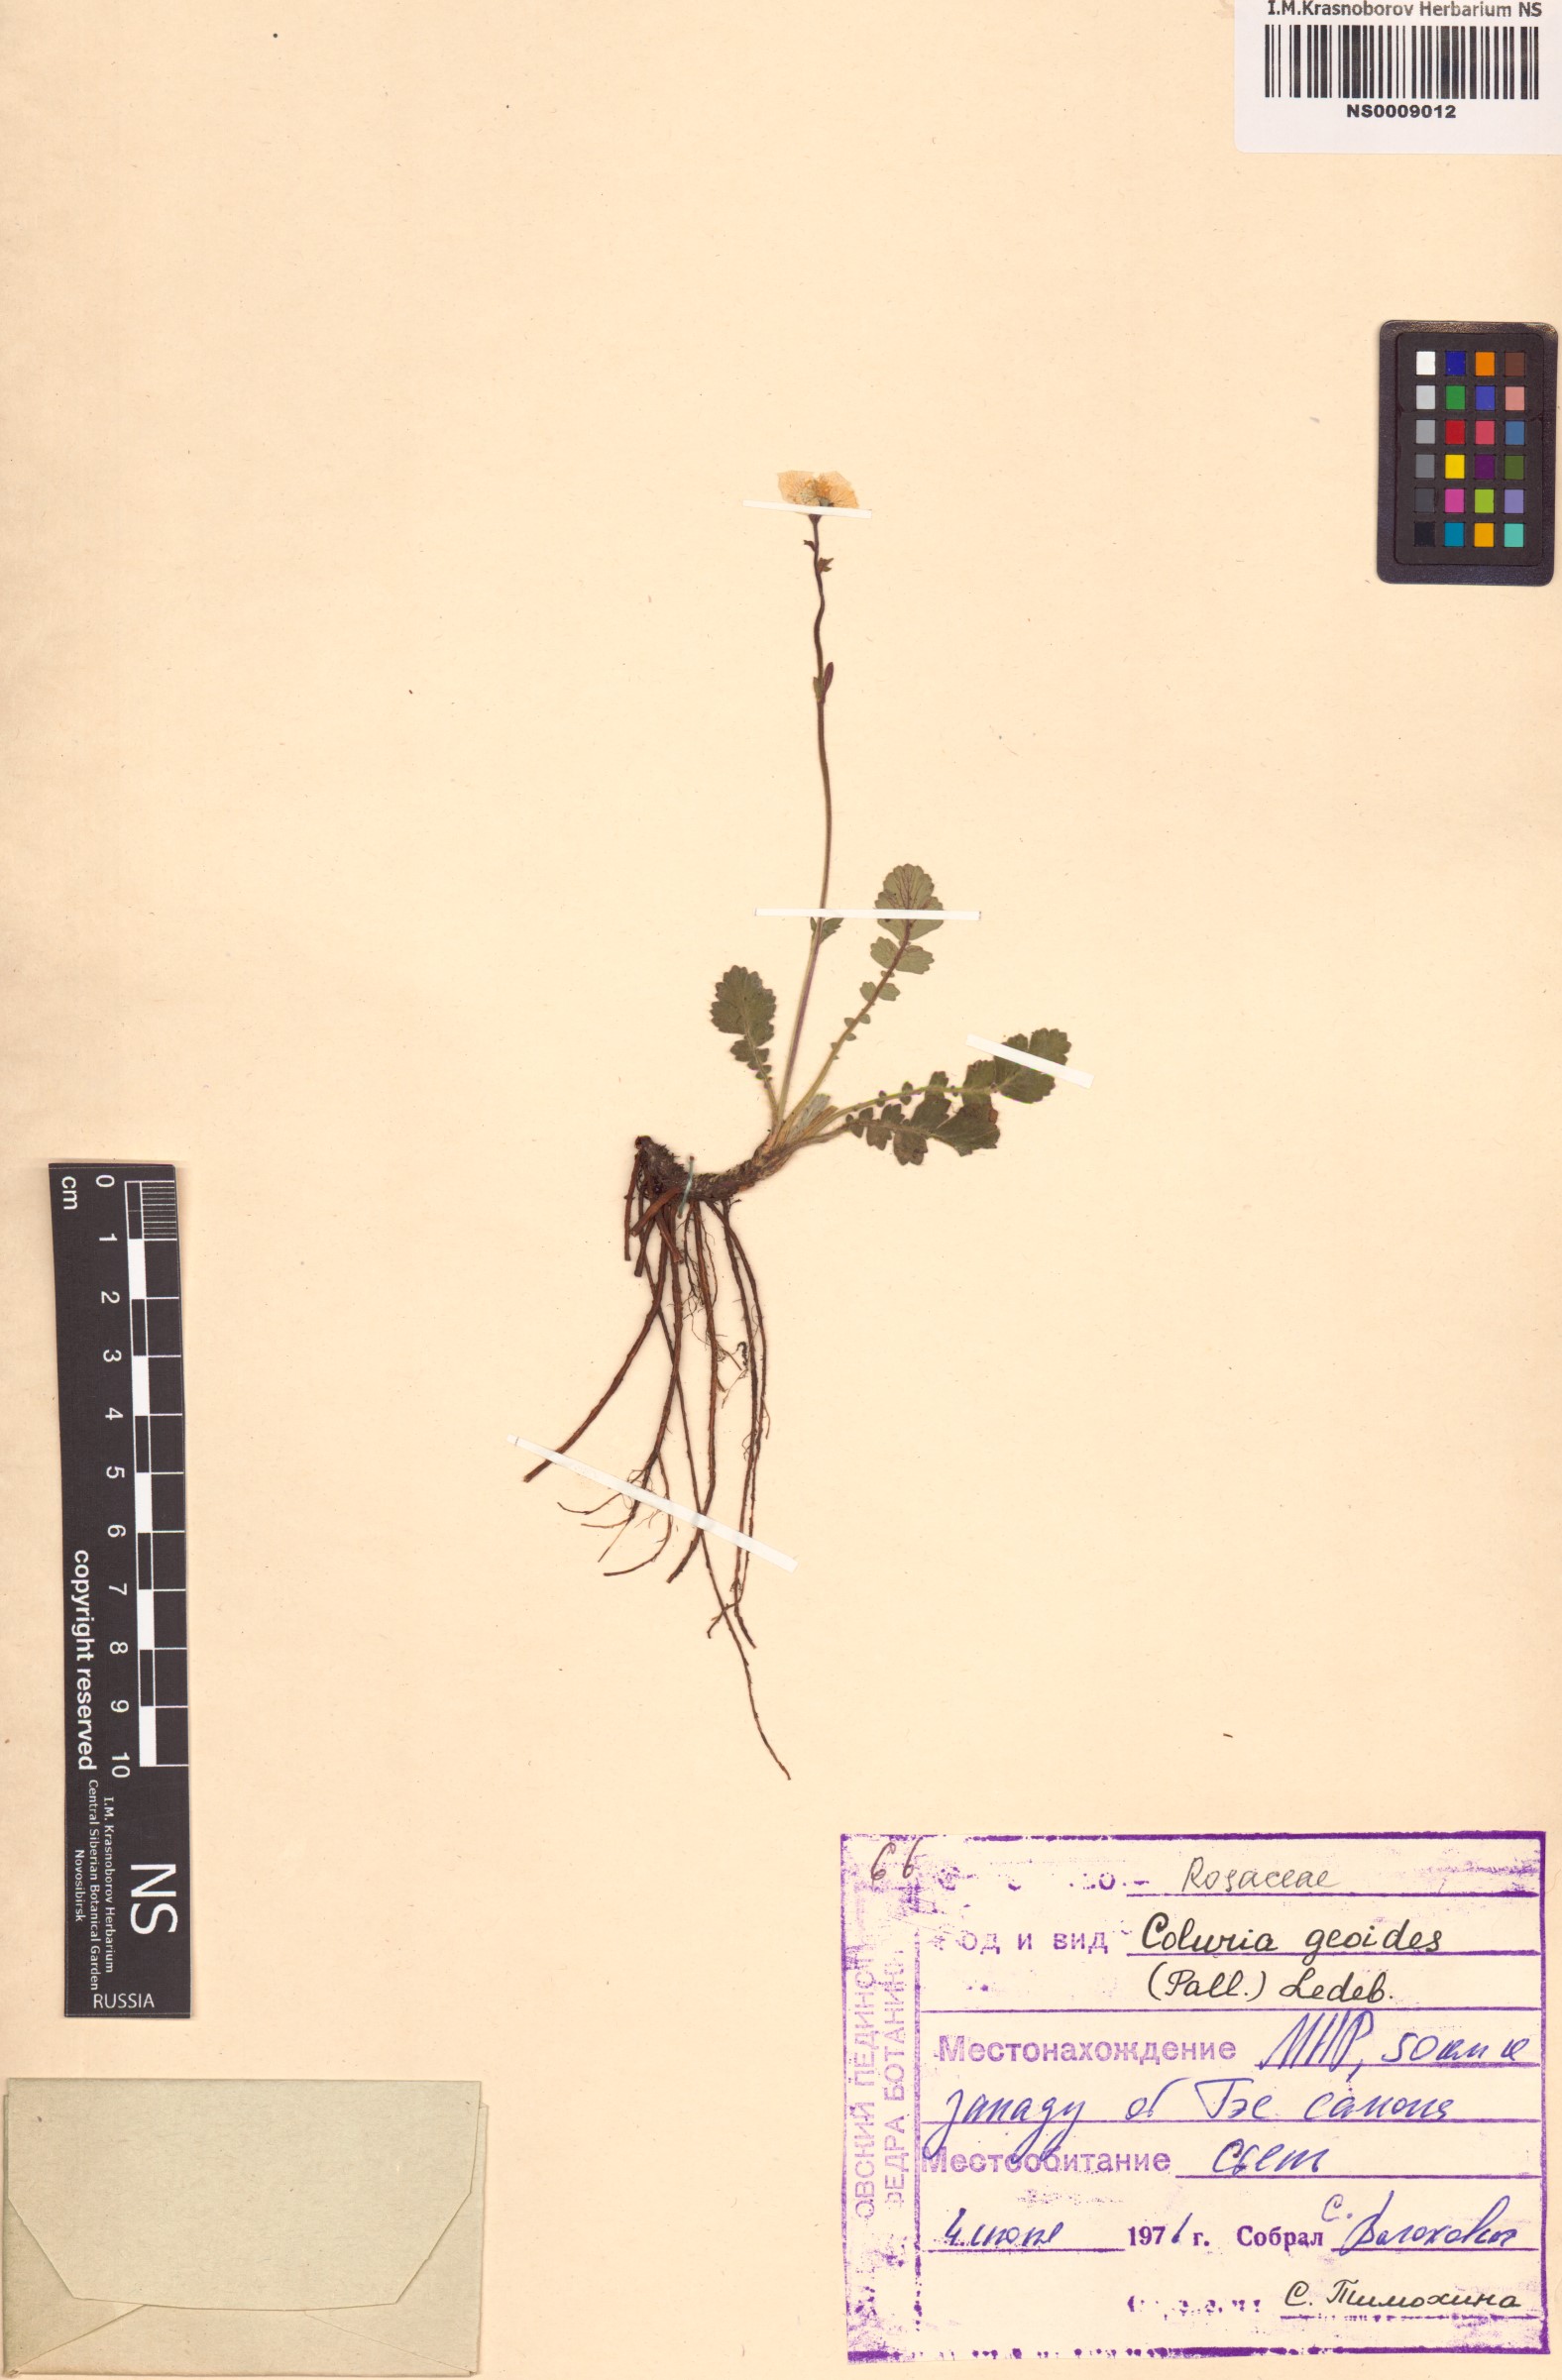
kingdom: Plantae
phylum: Tracheophyta
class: Magnoliopsida
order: Rosales
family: Rosaceae
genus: Geum
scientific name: Geum geoides
